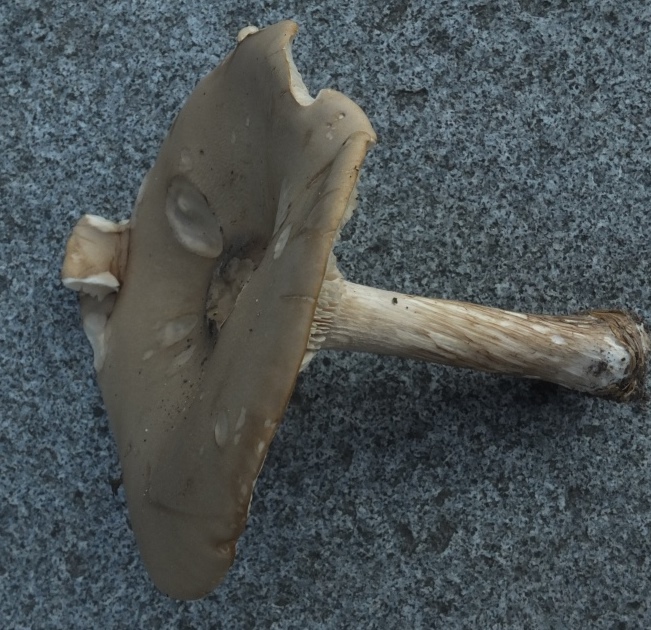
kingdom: Fungi
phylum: Basidiomycota
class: Agaricomycetes
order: Agaricales
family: Tricholomataceae
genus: Melanoleuca
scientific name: Melanoleuca grammopodia
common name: stribestokket munkehat
